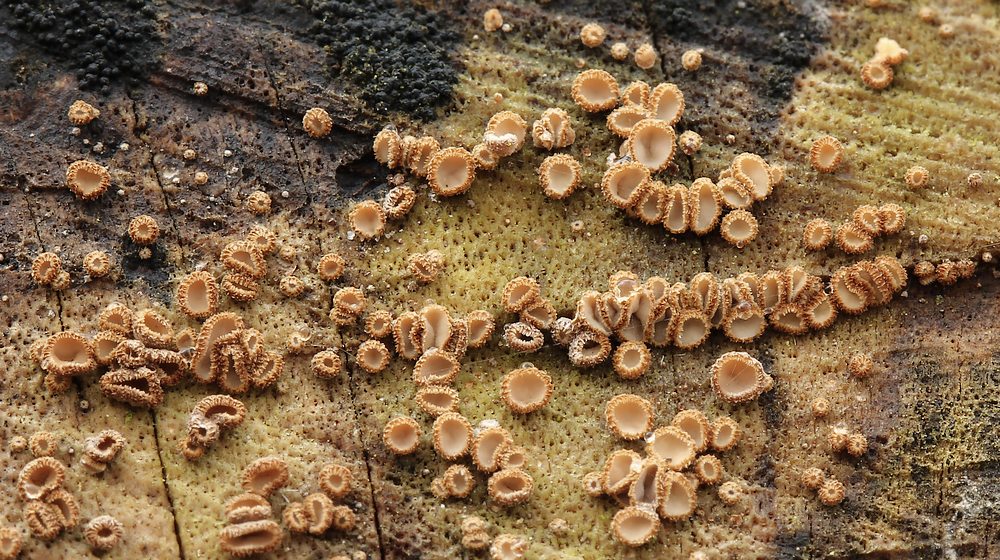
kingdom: Fungi
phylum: Basidiomycota
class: Agaricomycetes
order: Agaricales
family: Niaceae
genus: Merismodes
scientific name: Merismodes
